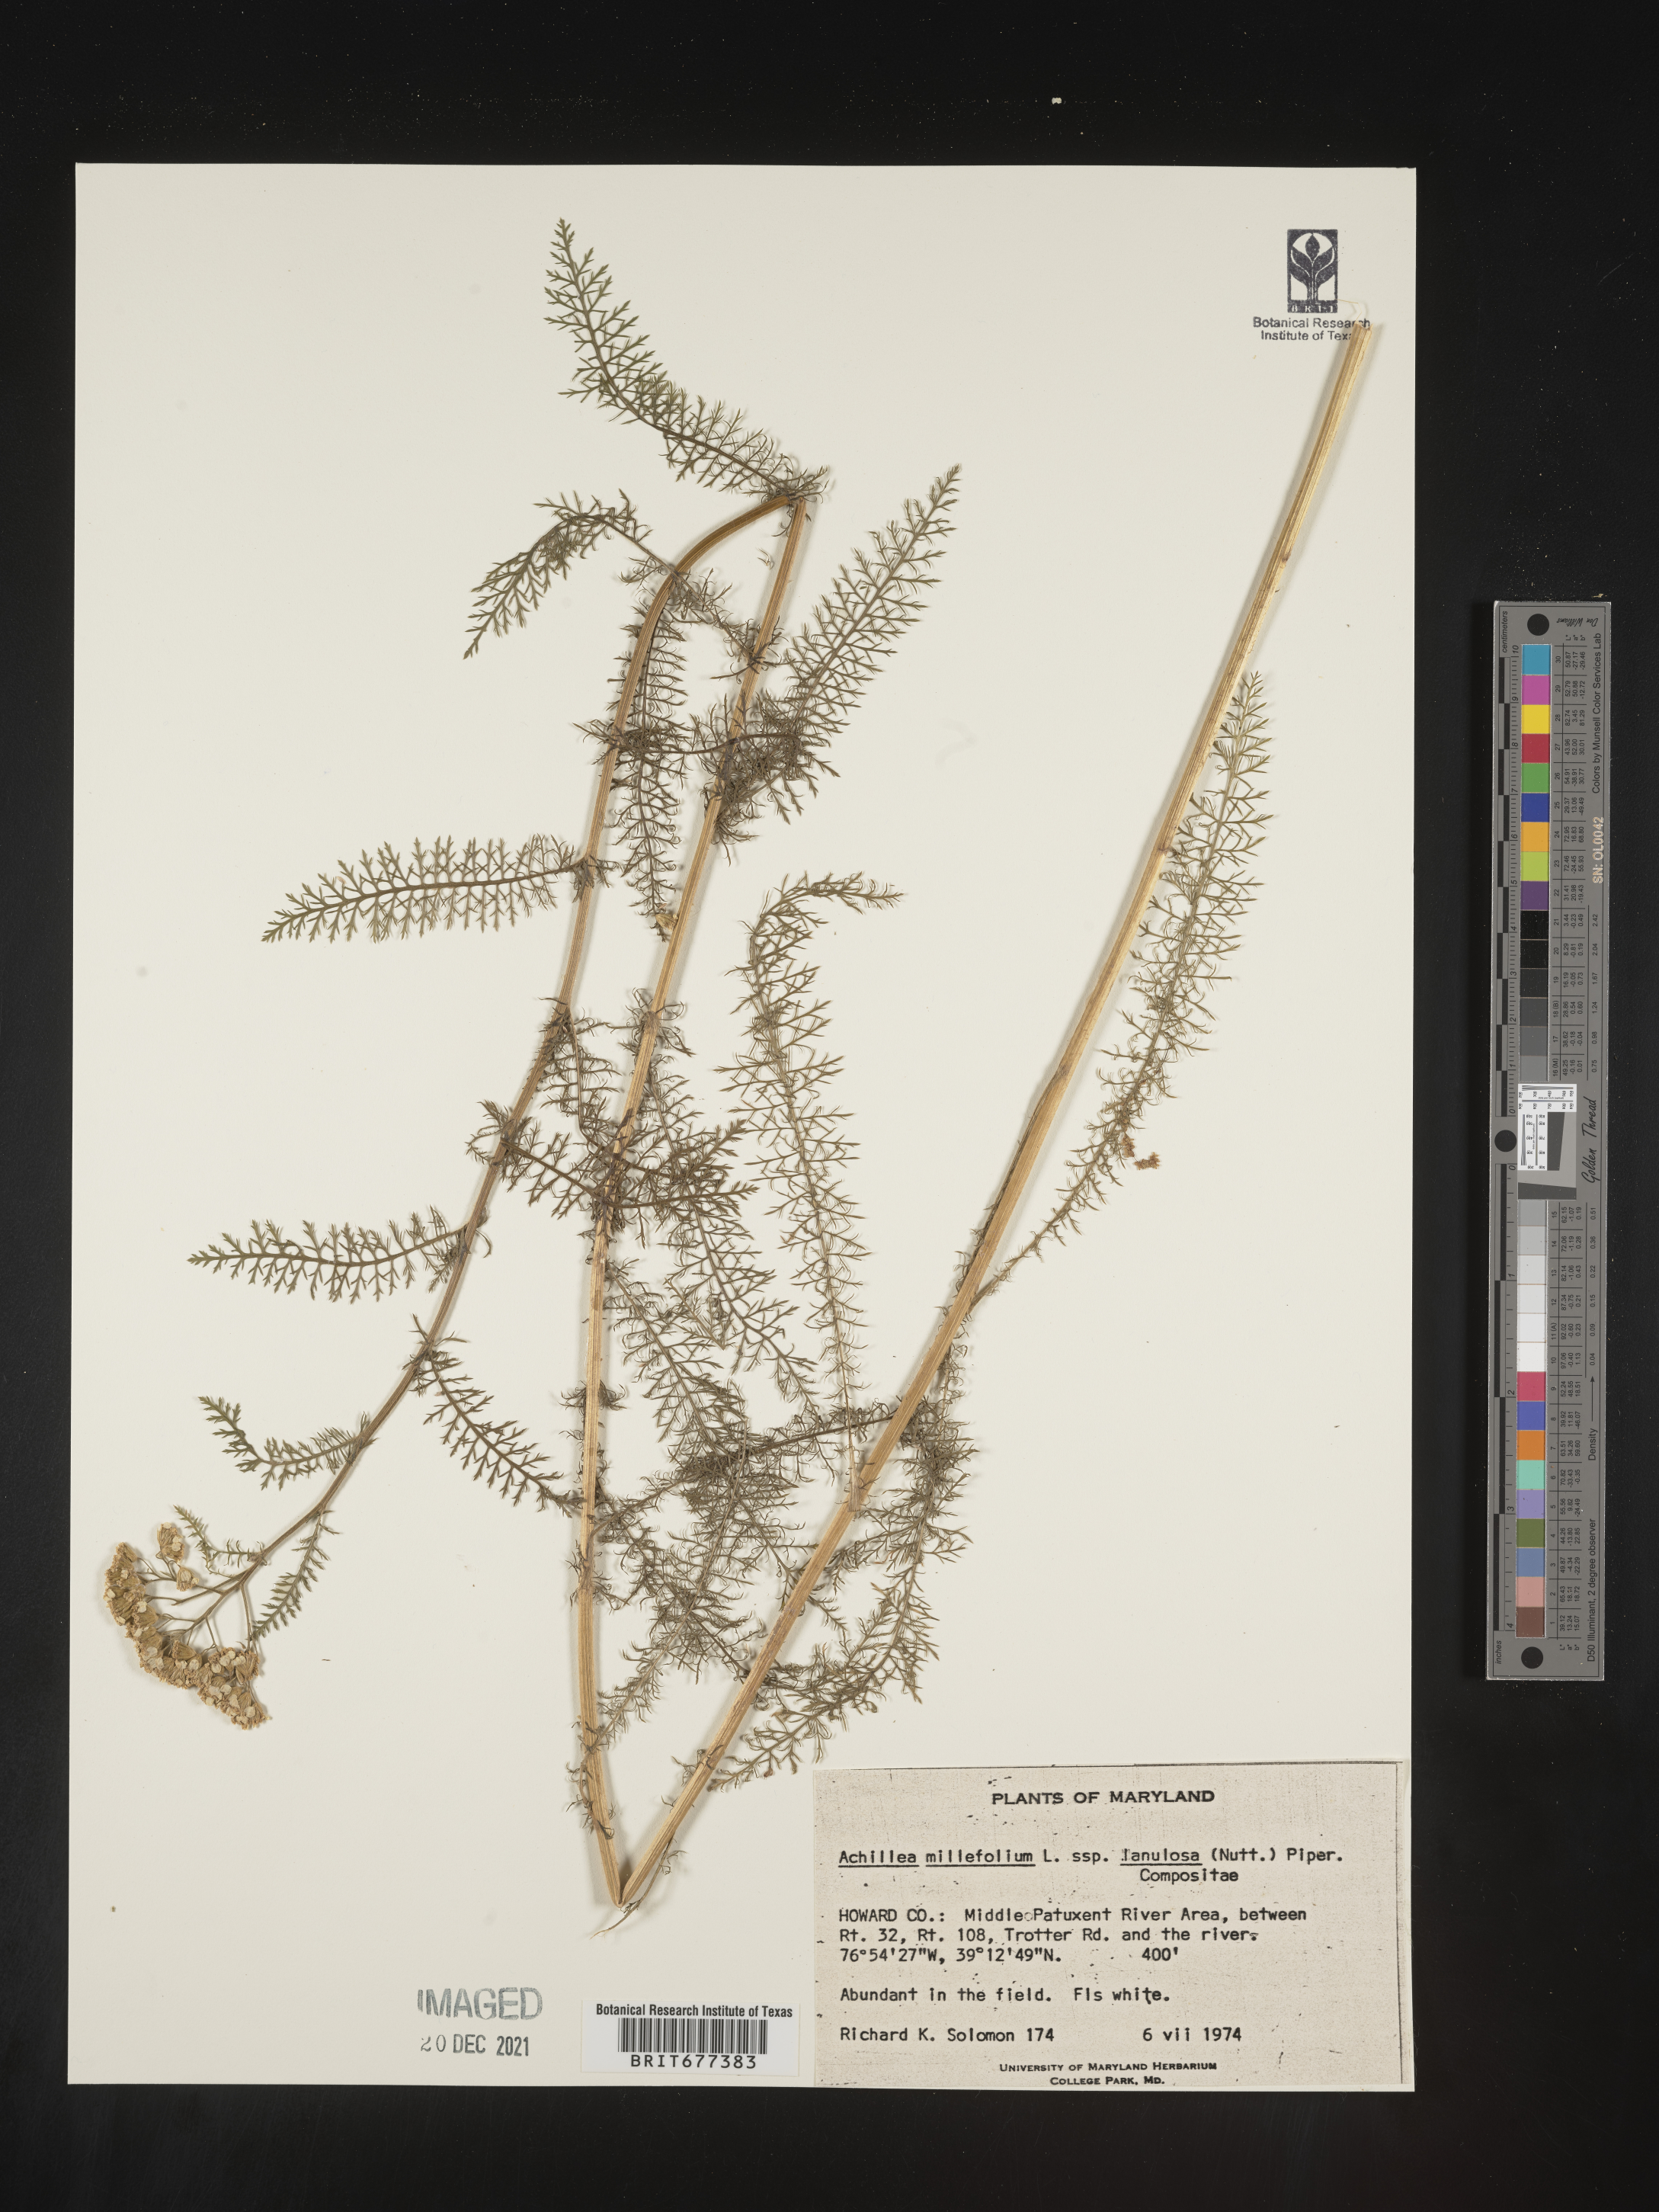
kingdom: Plantae
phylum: Tracheophyta
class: Magnoliopsida
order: Asterales
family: Asteraceae
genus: Achillea
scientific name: Achillea millefolium
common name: Yarrow
